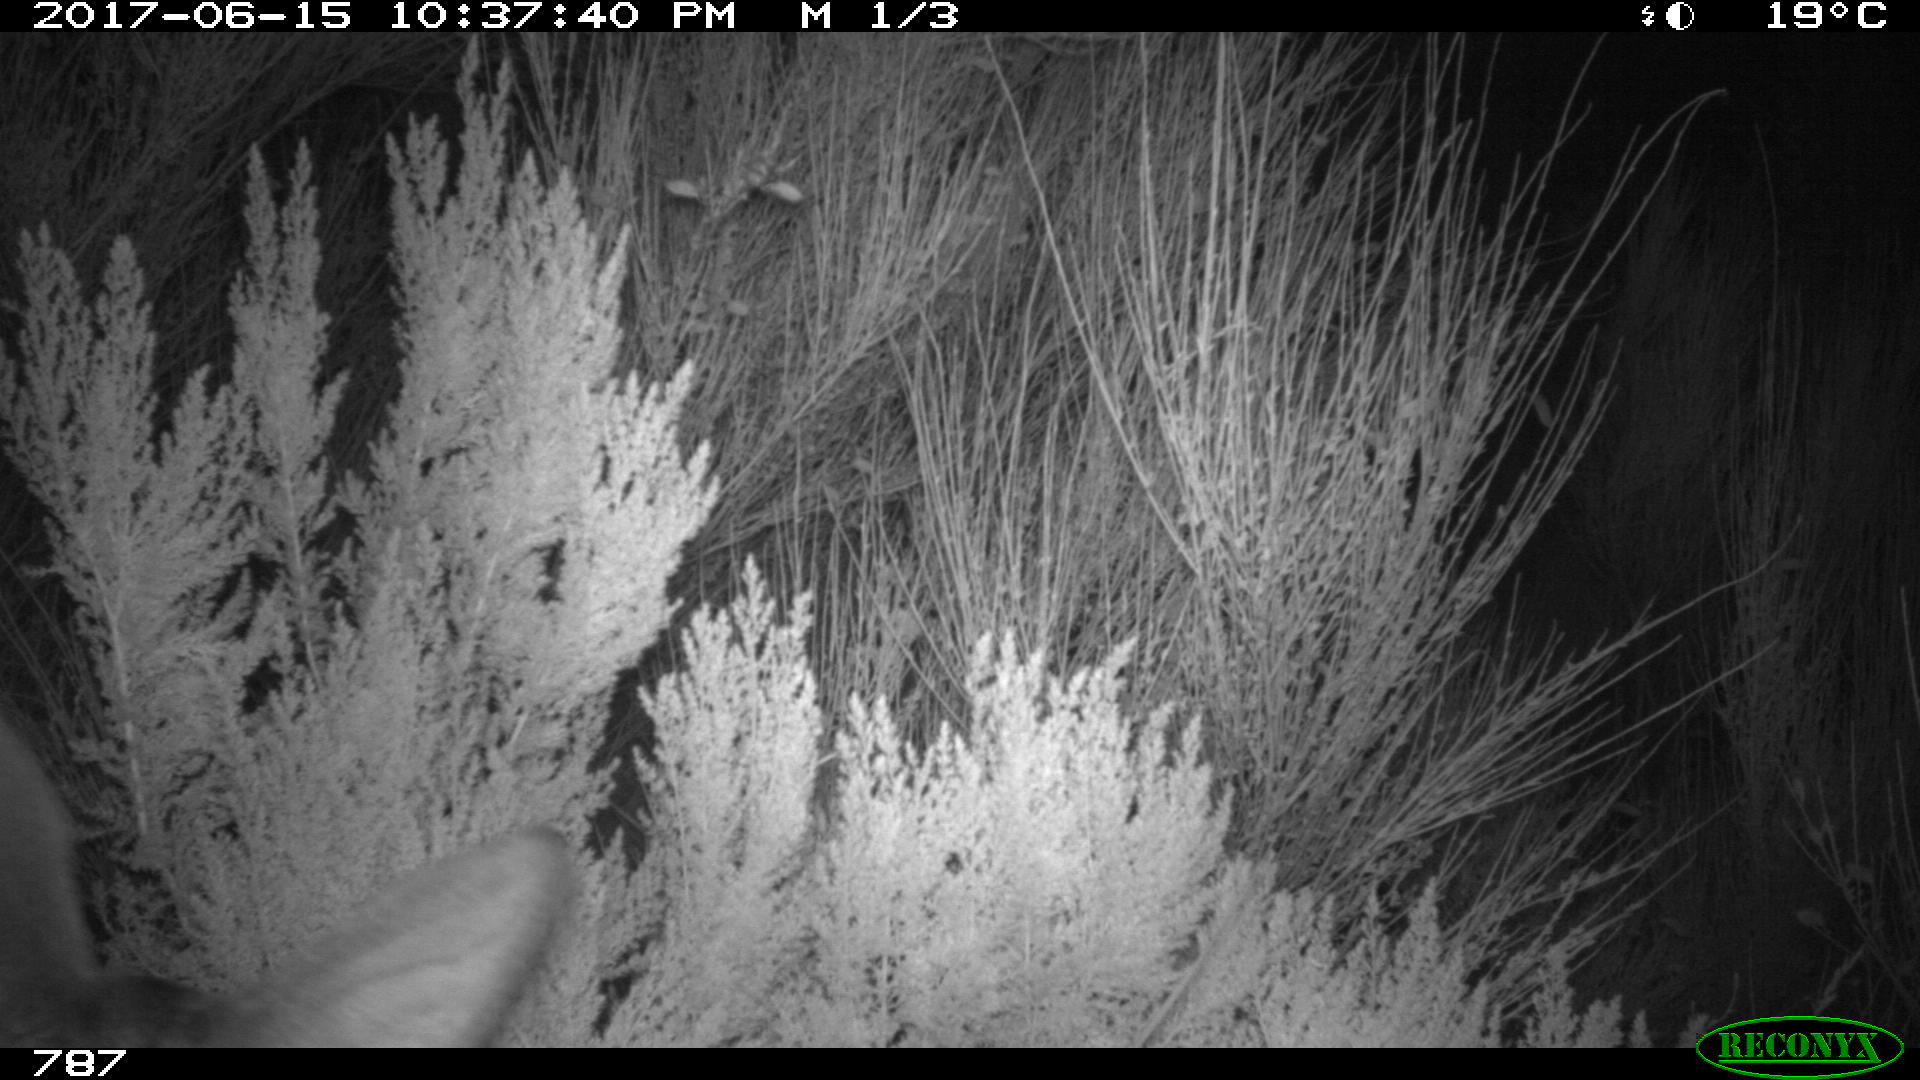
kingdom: Animalia
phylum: Chordata
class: Mammalia
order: Artiodactyla
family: Cervidae
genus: Capreolus
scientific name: Capreolus capreolus
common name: Western roe deer
